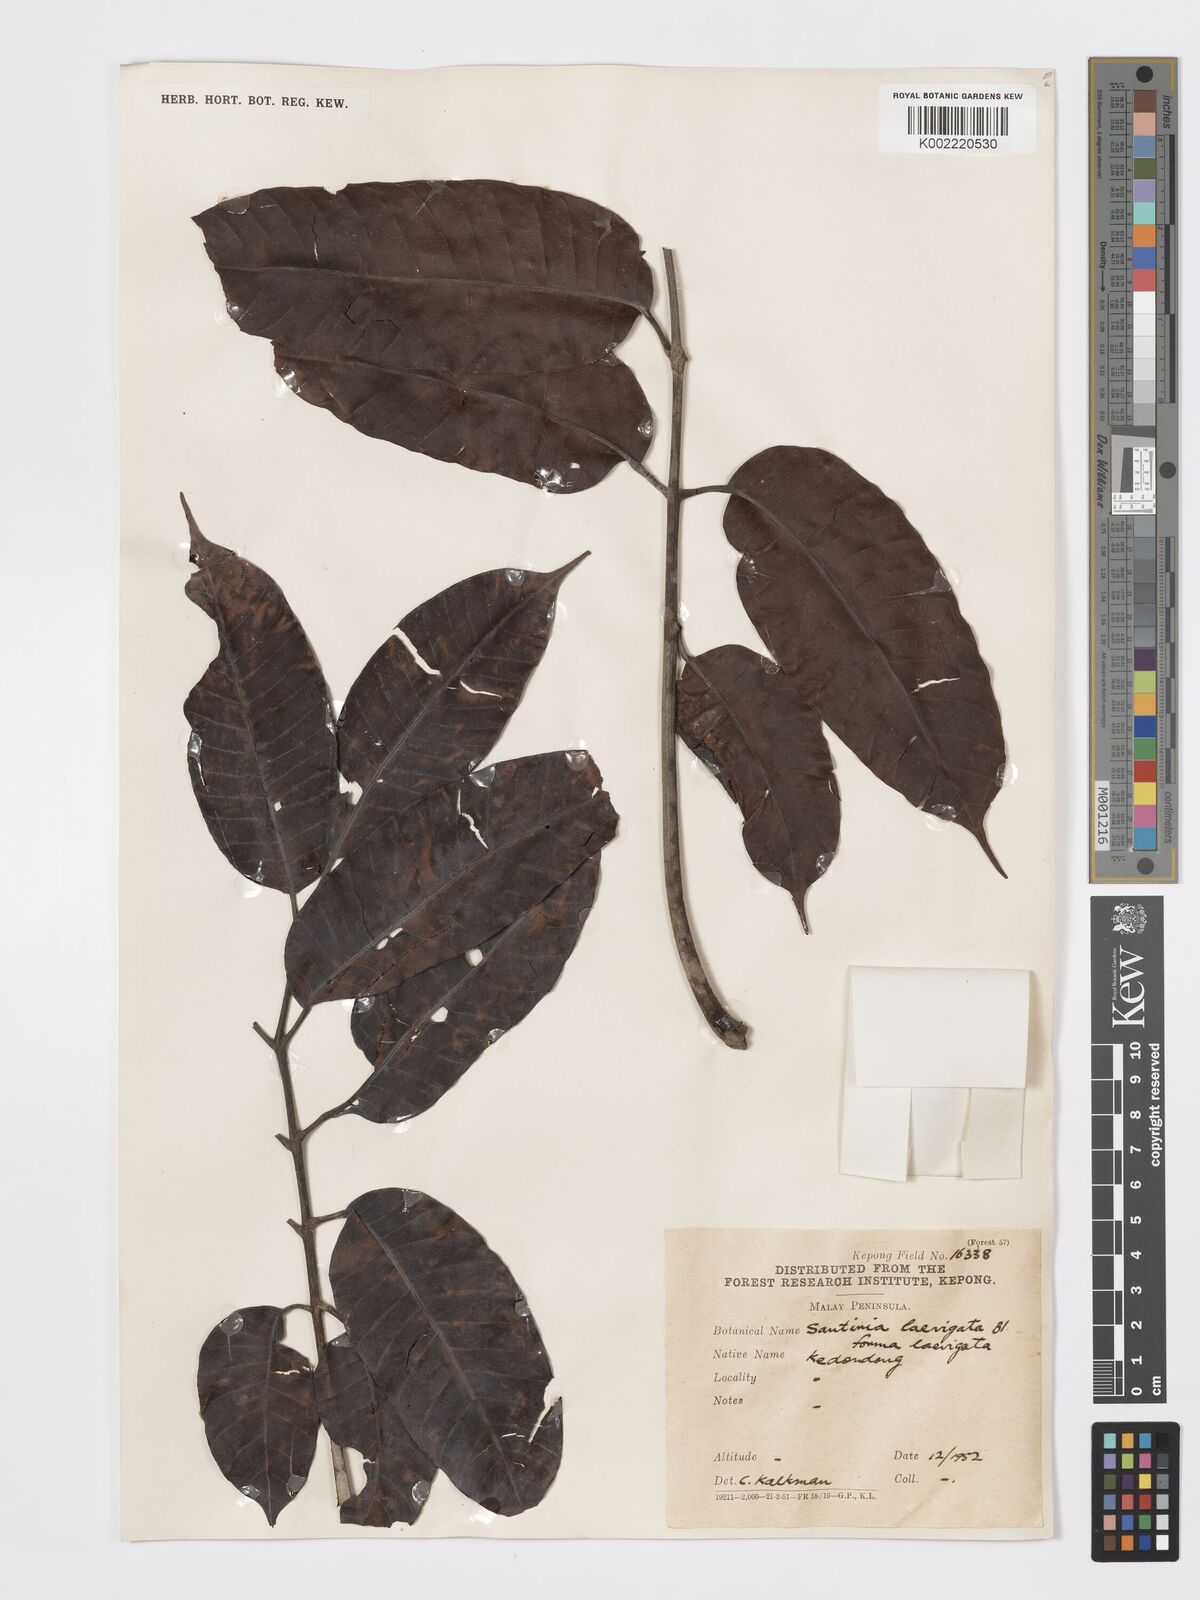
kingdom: Plantae
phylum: Tracheophyta
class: Magnoliopsida
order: Sapindales
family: Burseraceae
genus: Santiria
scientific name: Santiria laevigata
